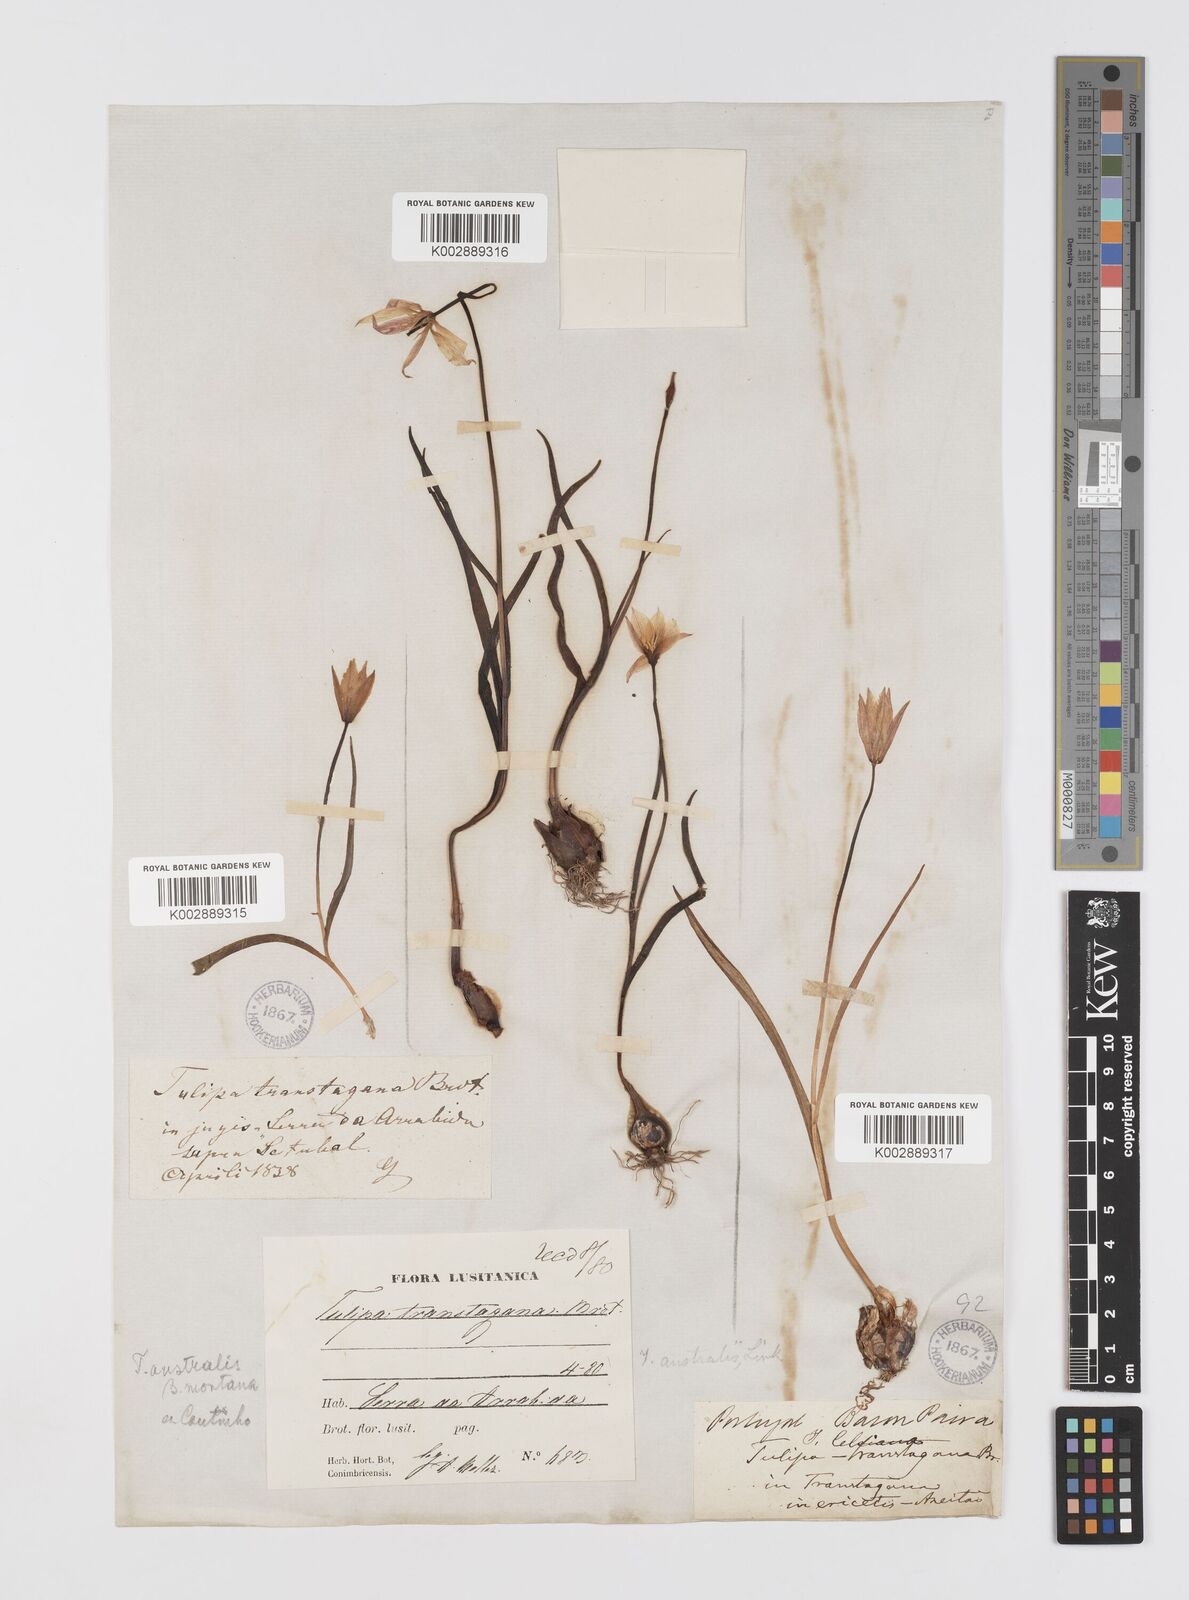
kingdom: Plantae
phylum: Tracheophyta
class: Liliopsida
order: Liliales
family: Liliaceae
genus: Tulipa
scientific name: Tulipa sylvestris
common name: Wild tulip
